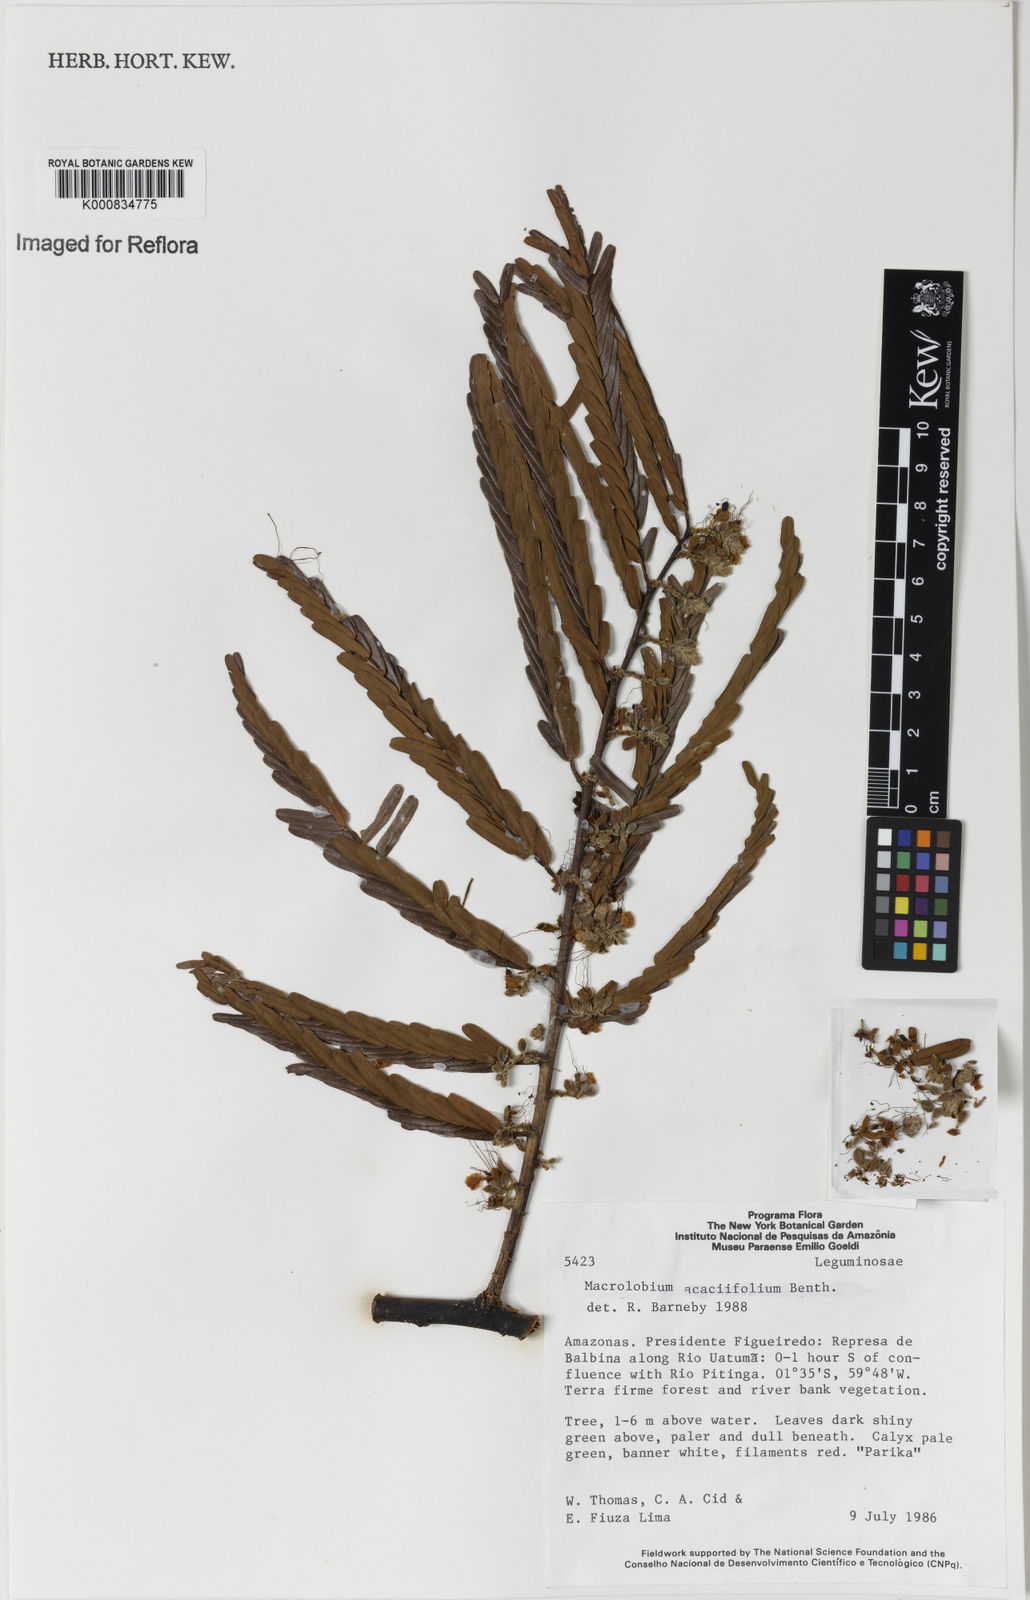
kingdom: Plantae
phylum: Tracheophyta
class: Magnoliopsida
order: Fabales
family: Fabaceae
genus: Macrolobium
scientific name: Macrolobium acaciifolium
